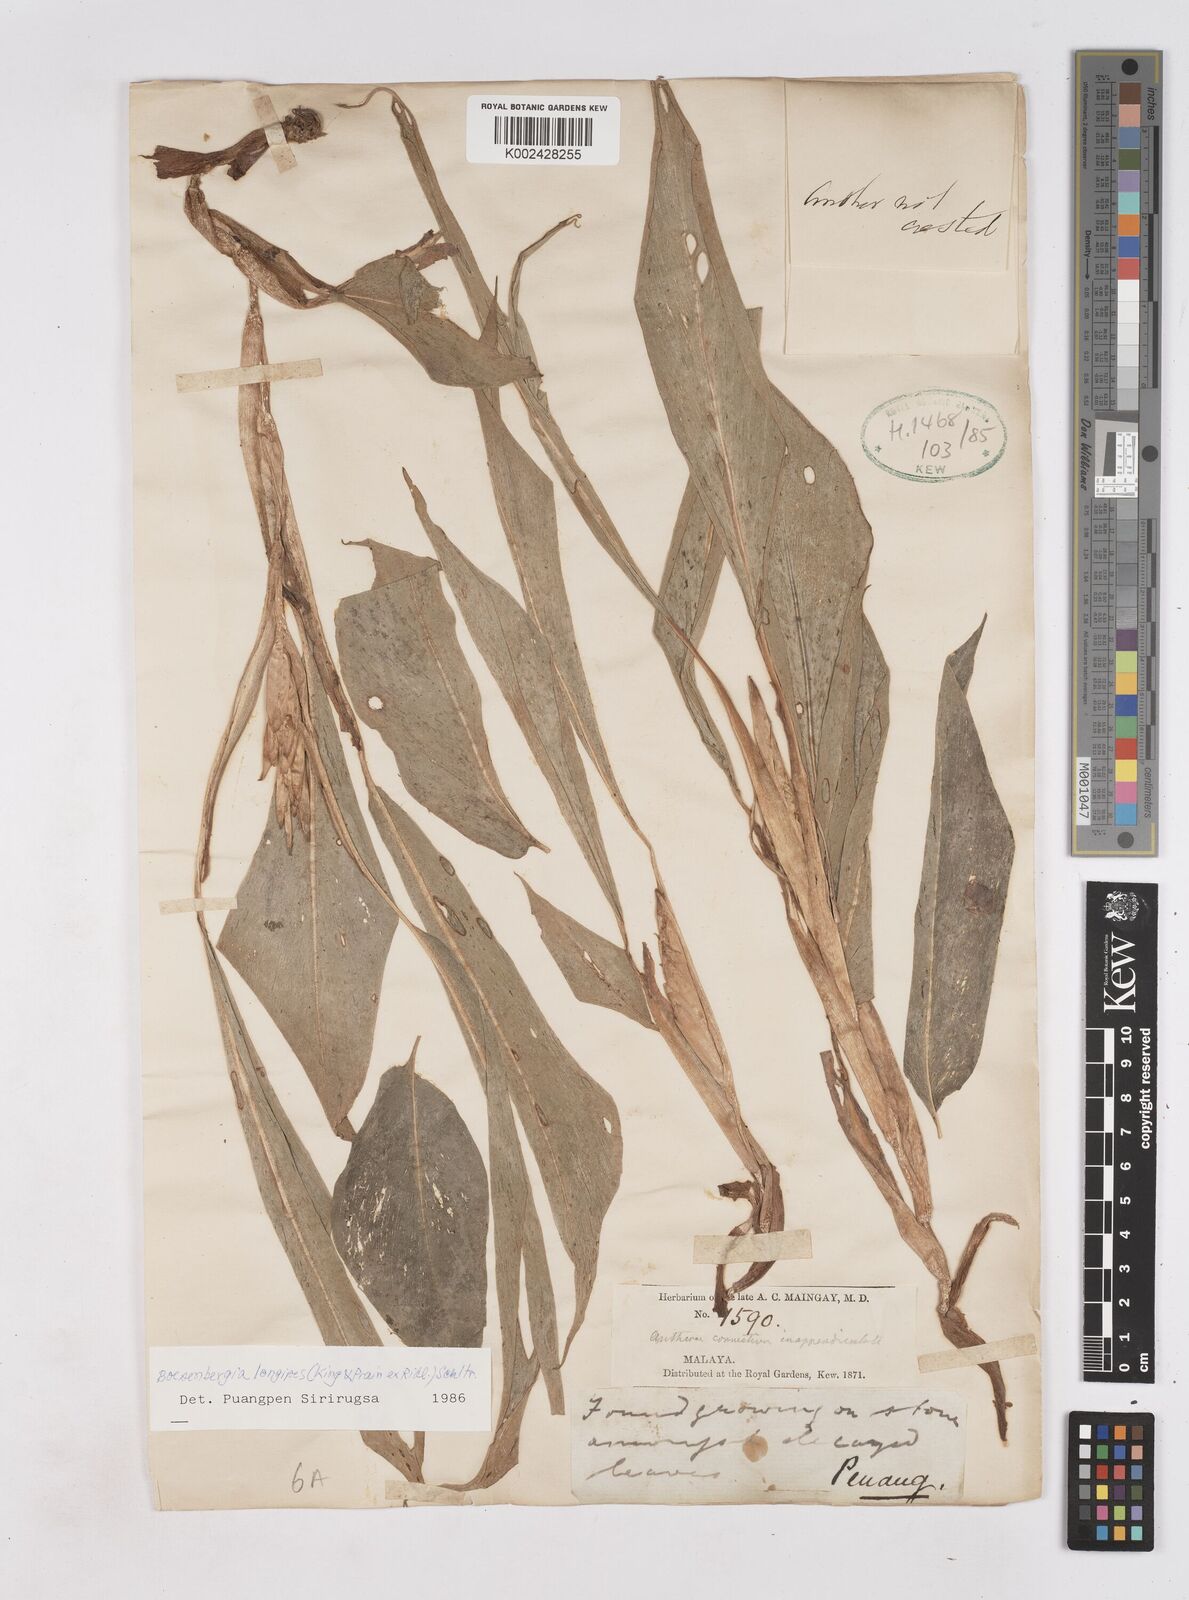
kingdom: Plantae
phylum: Tracheophyta
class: Liliopsida
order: Zingiberales
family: Zingiberaceae
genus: Boesenbergia
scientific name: Boesenbergia longipes
